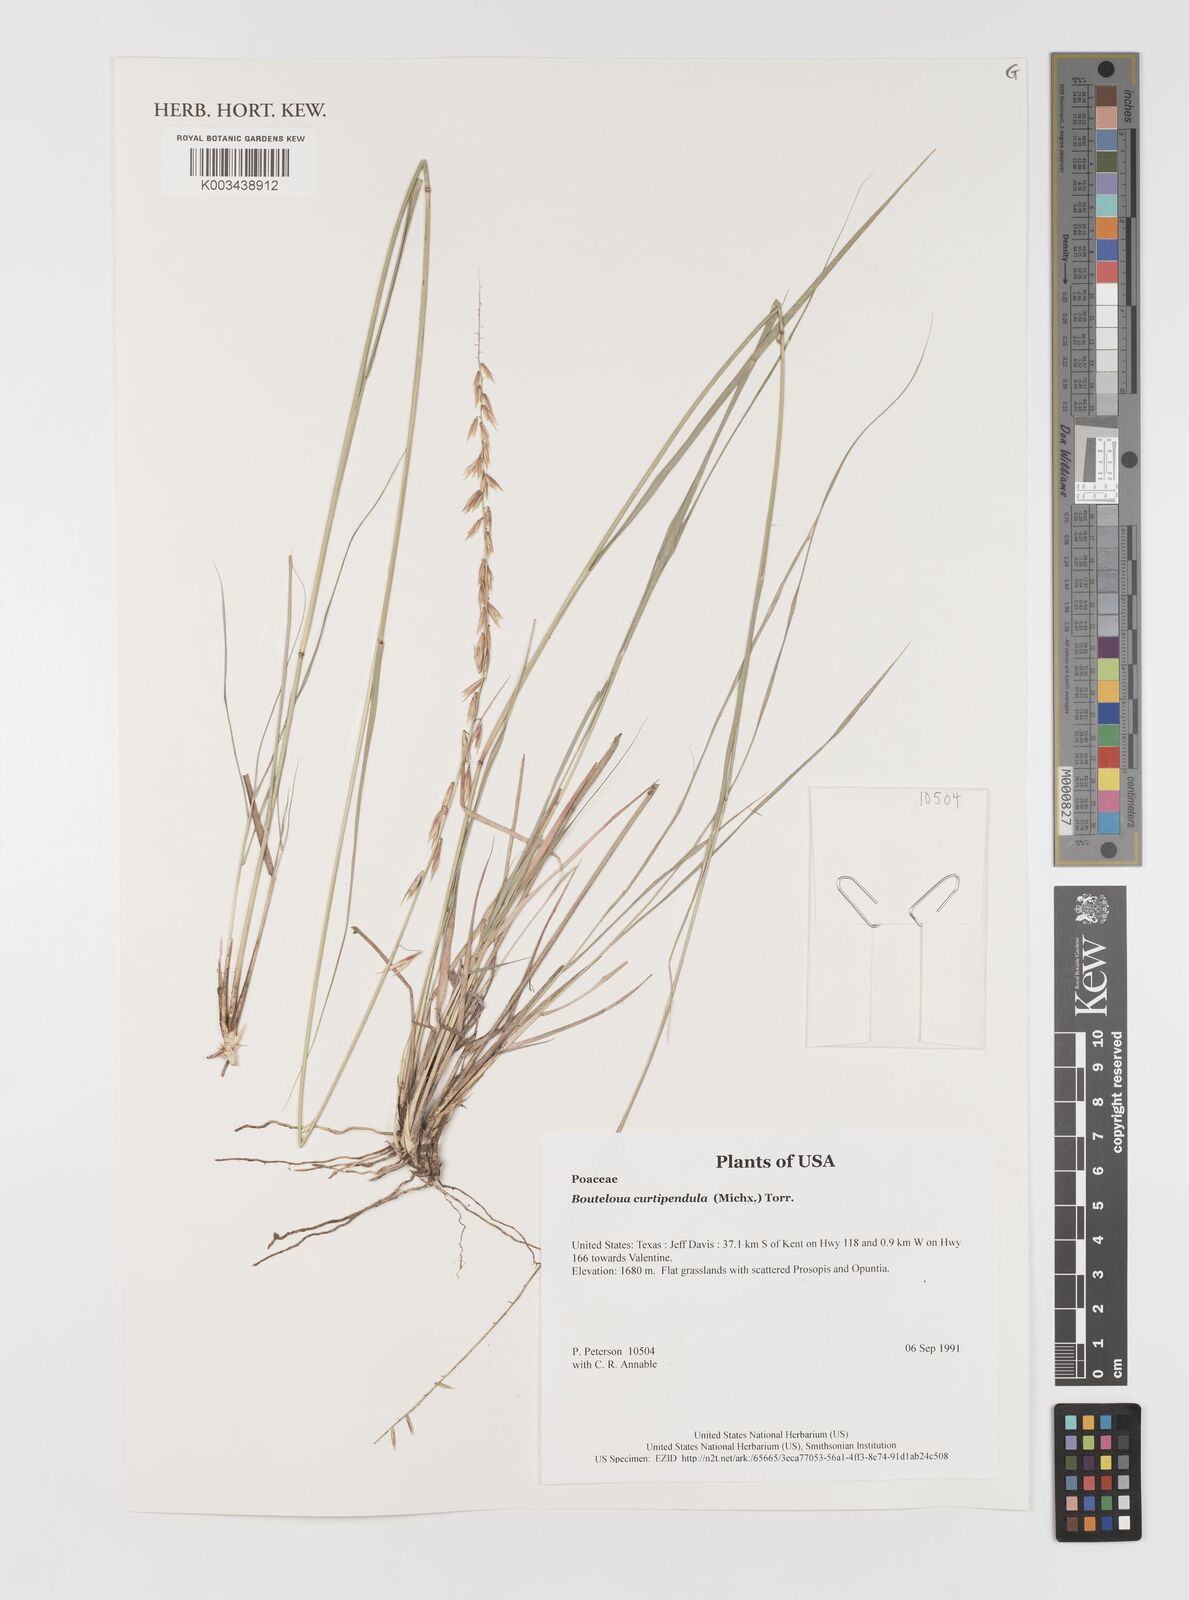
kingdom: Plantae
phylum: Tracheophyta
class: Liliopsida
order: Poales
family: Poaceae
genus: Bouteloua
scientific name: Bouteloua curtipendula
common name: Side-oats grama
